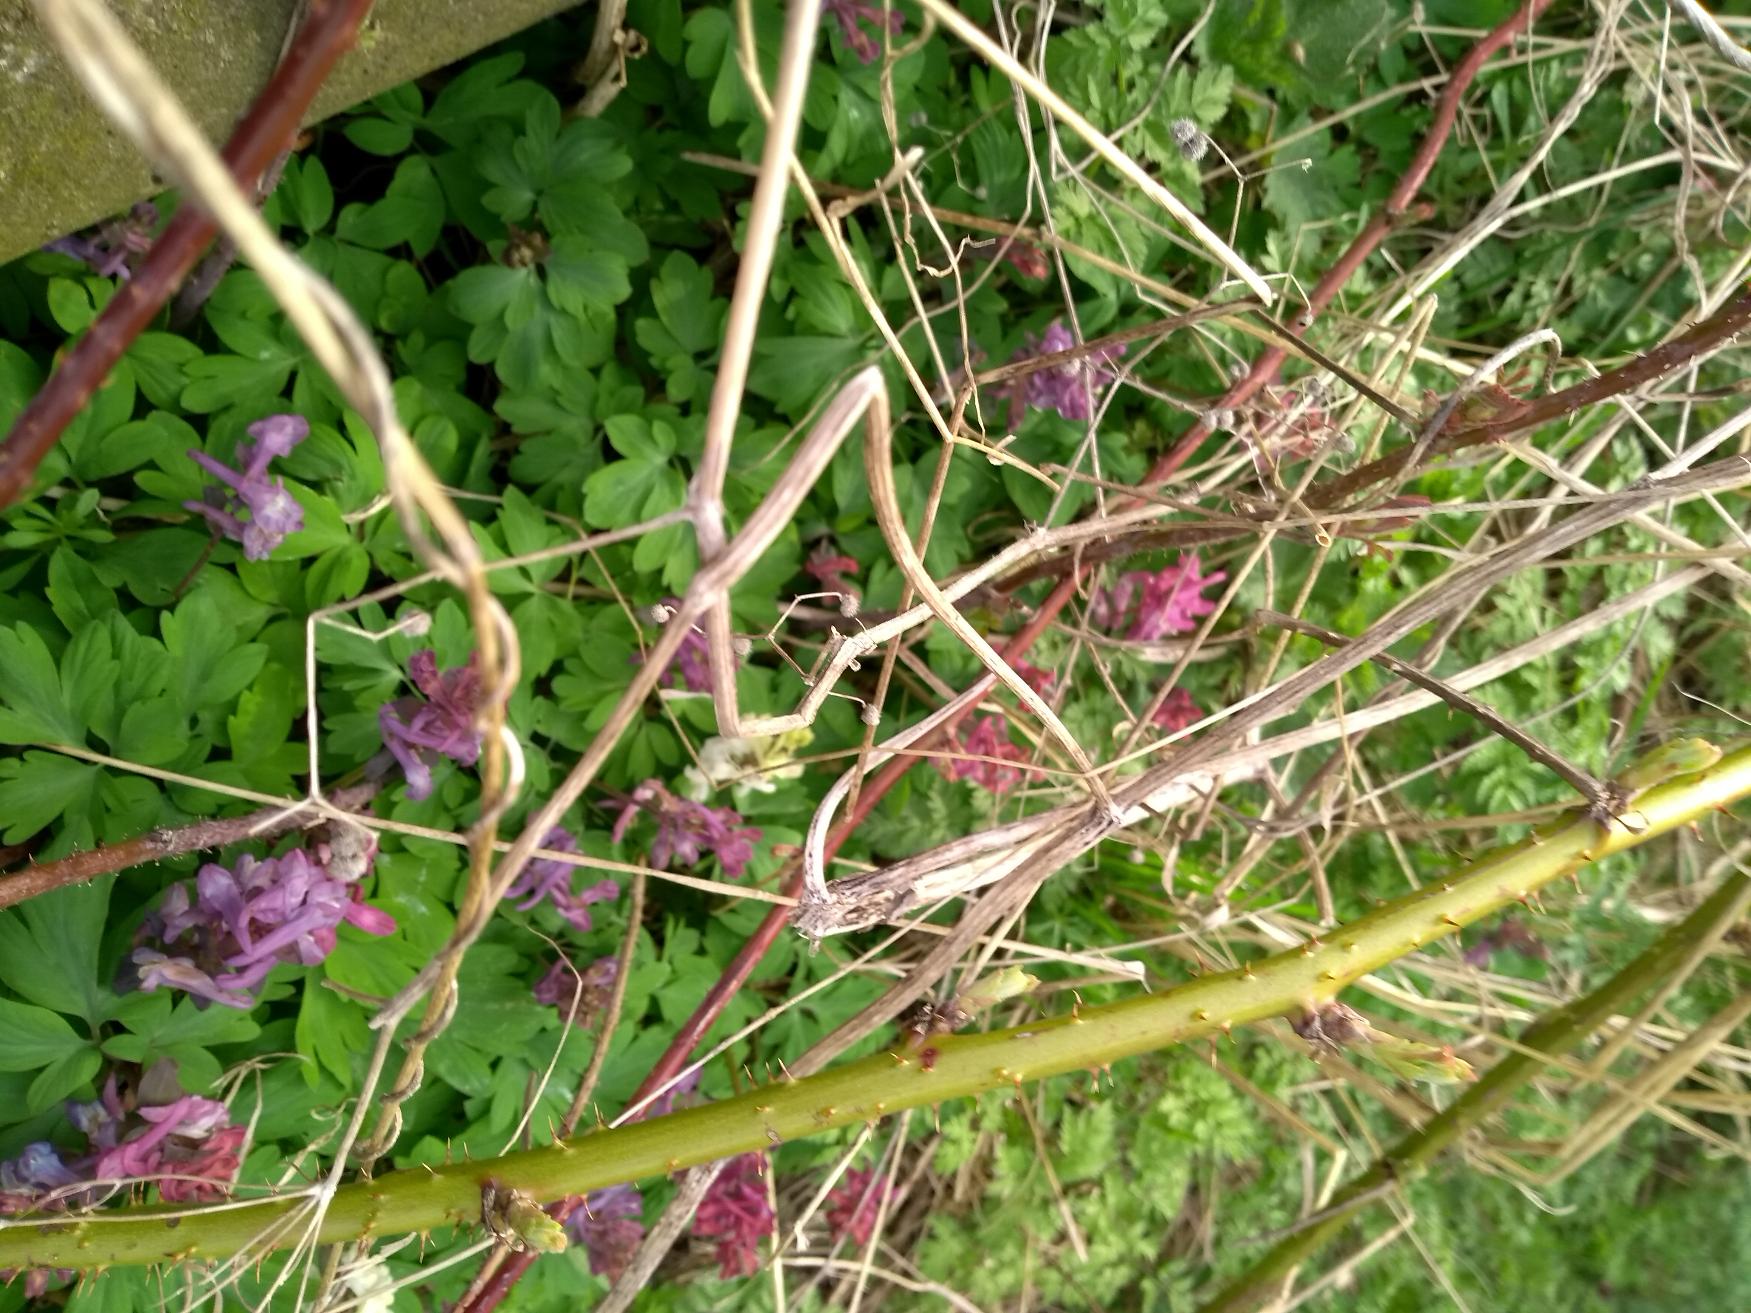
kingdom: Plantae
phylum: Tracheophyta
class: Magnoliopsida
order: Ranunculales
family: Papaveraceae
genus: Corydalis
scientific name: Corydalis cava
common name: Hulrodet lærkespore
